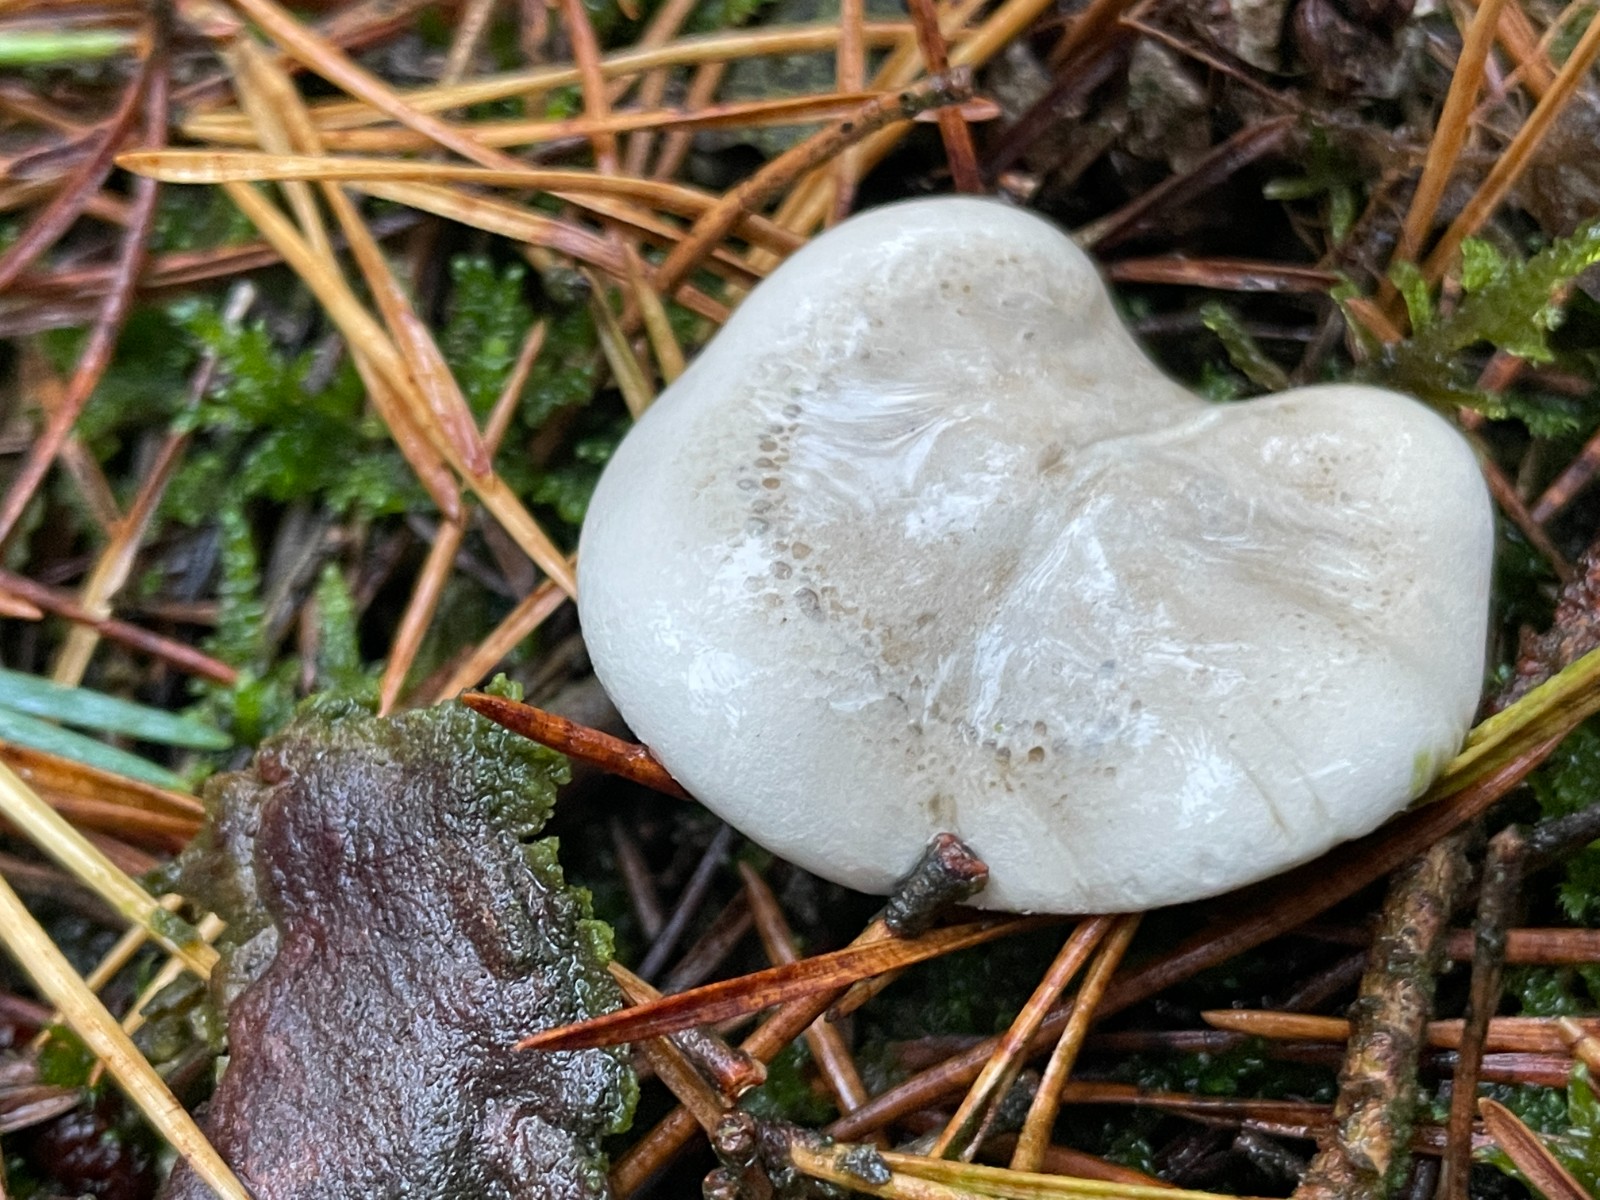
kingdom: Fungi
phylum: Basidiomycota
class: Agaricomycetes
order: Agaricales
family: Entolomataceae
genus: Clitopilus
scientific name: Clitopilus prunulus
